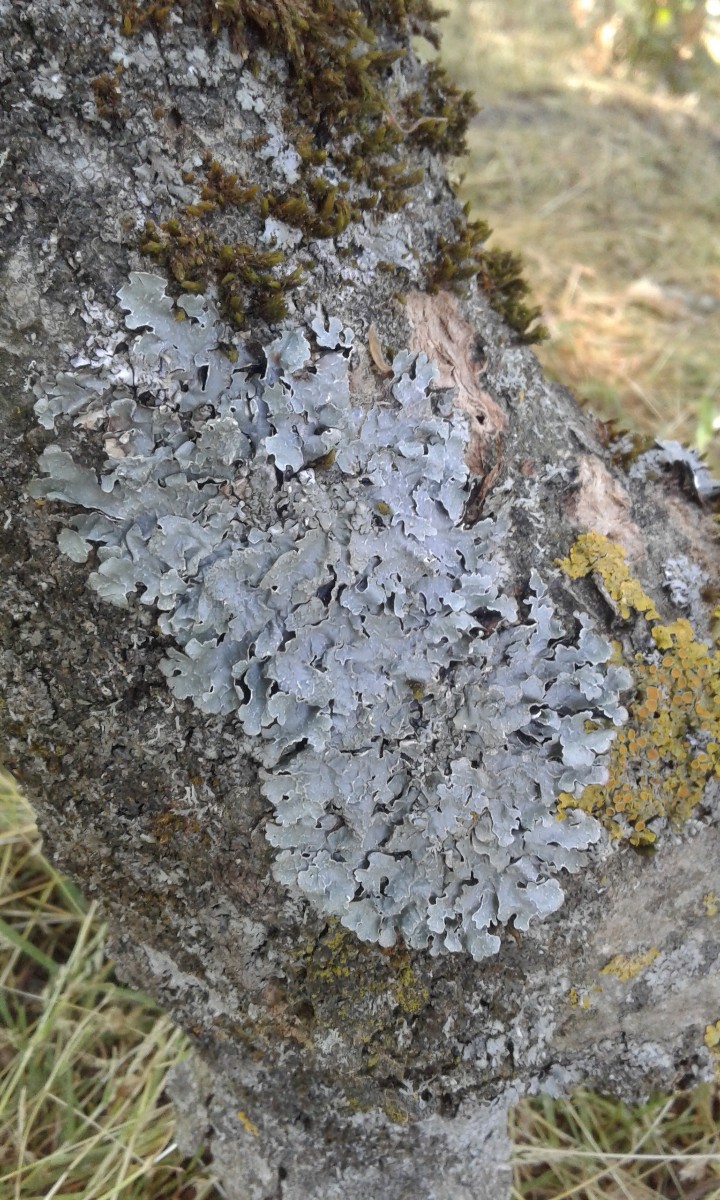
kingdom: Fungi
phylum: Ascomycota
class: Lecanoromycetes
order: Lecanorales
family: Parmeliaceae
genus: Parmelia
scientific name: Parmelia sulcata
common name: rynket skållav
